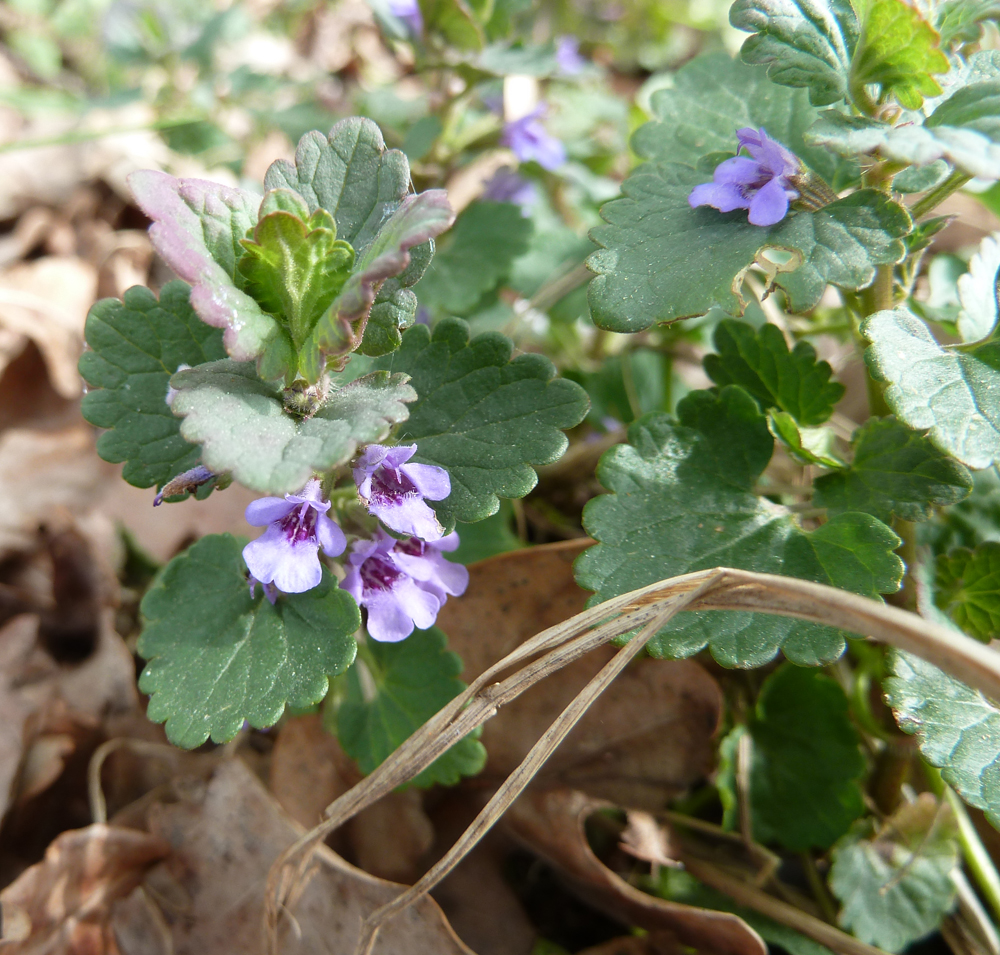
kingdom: Plantae
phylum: Tracheophyta
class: Magnoliopsida
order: Lamiales
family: Lamiaceae
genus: Glechoma
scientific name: Glechoma hederacea
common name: Ground ivy
